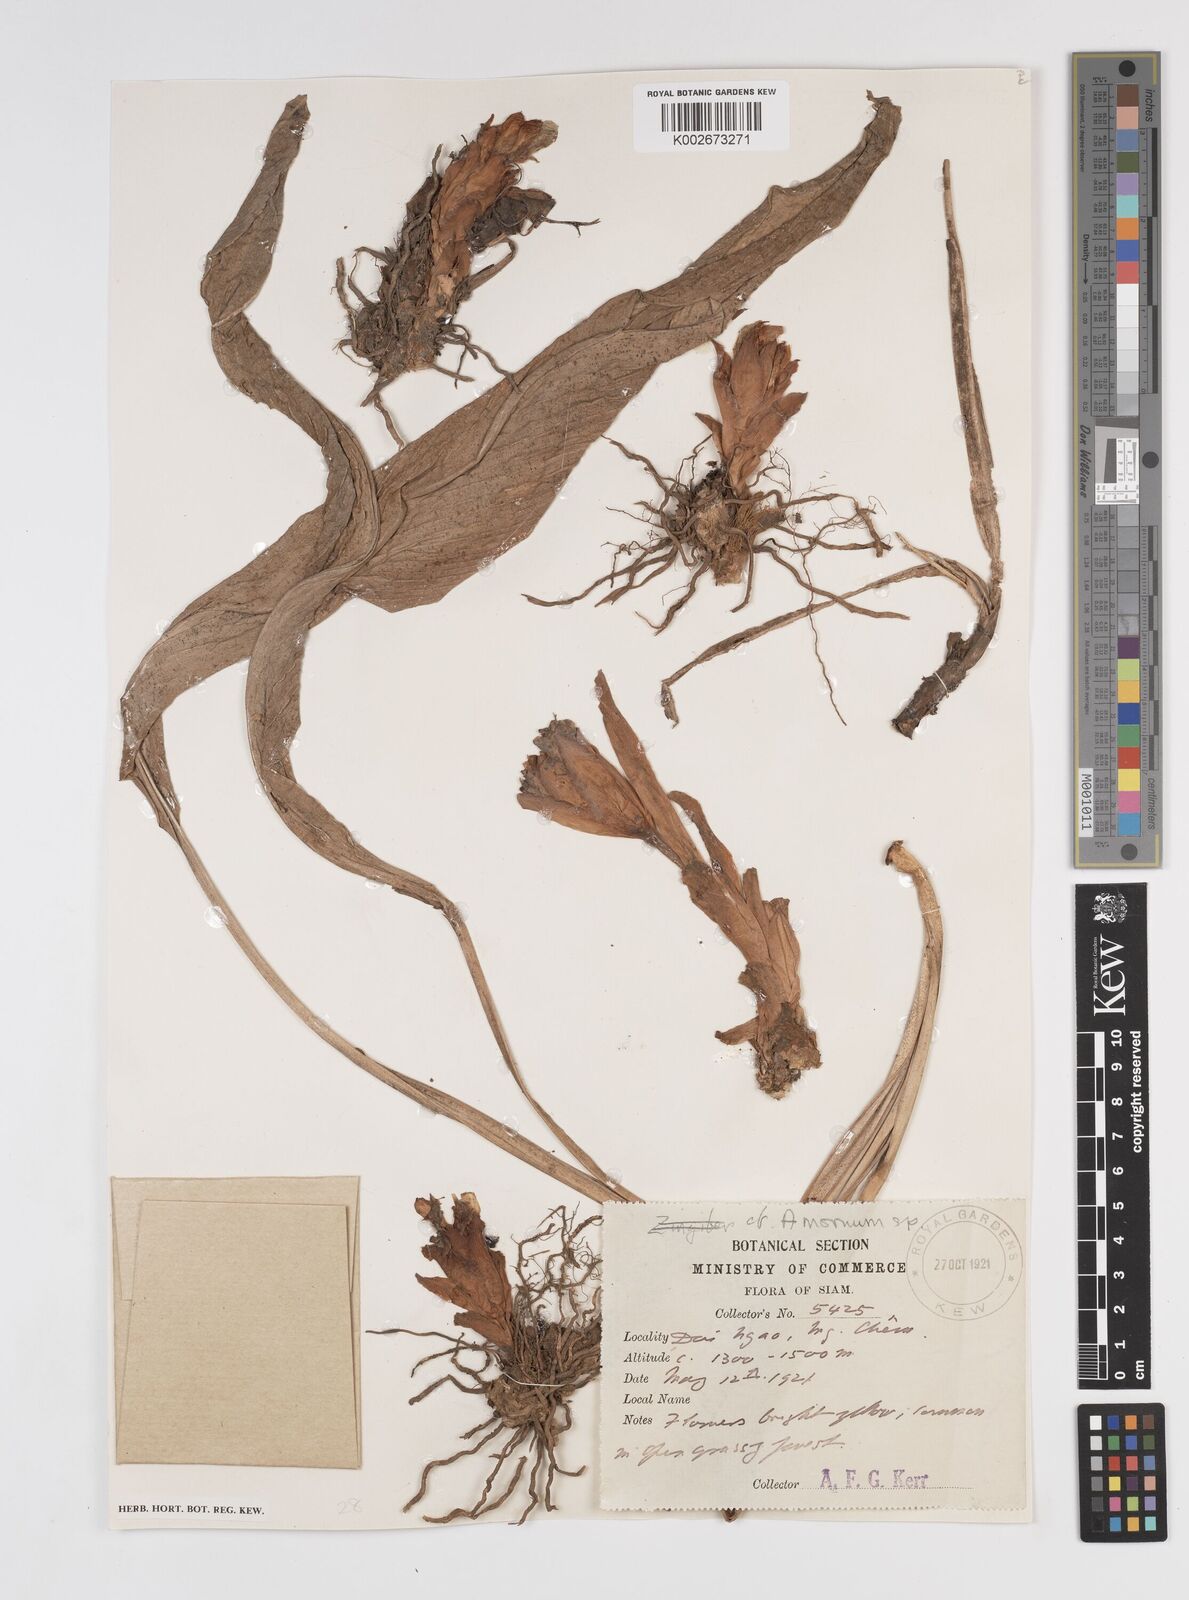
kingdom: Plantae
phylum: Tracheophyta
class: Liliopsida
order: Zingiberales
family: Zingiberaceae
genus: Amomum
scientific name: Amomum
